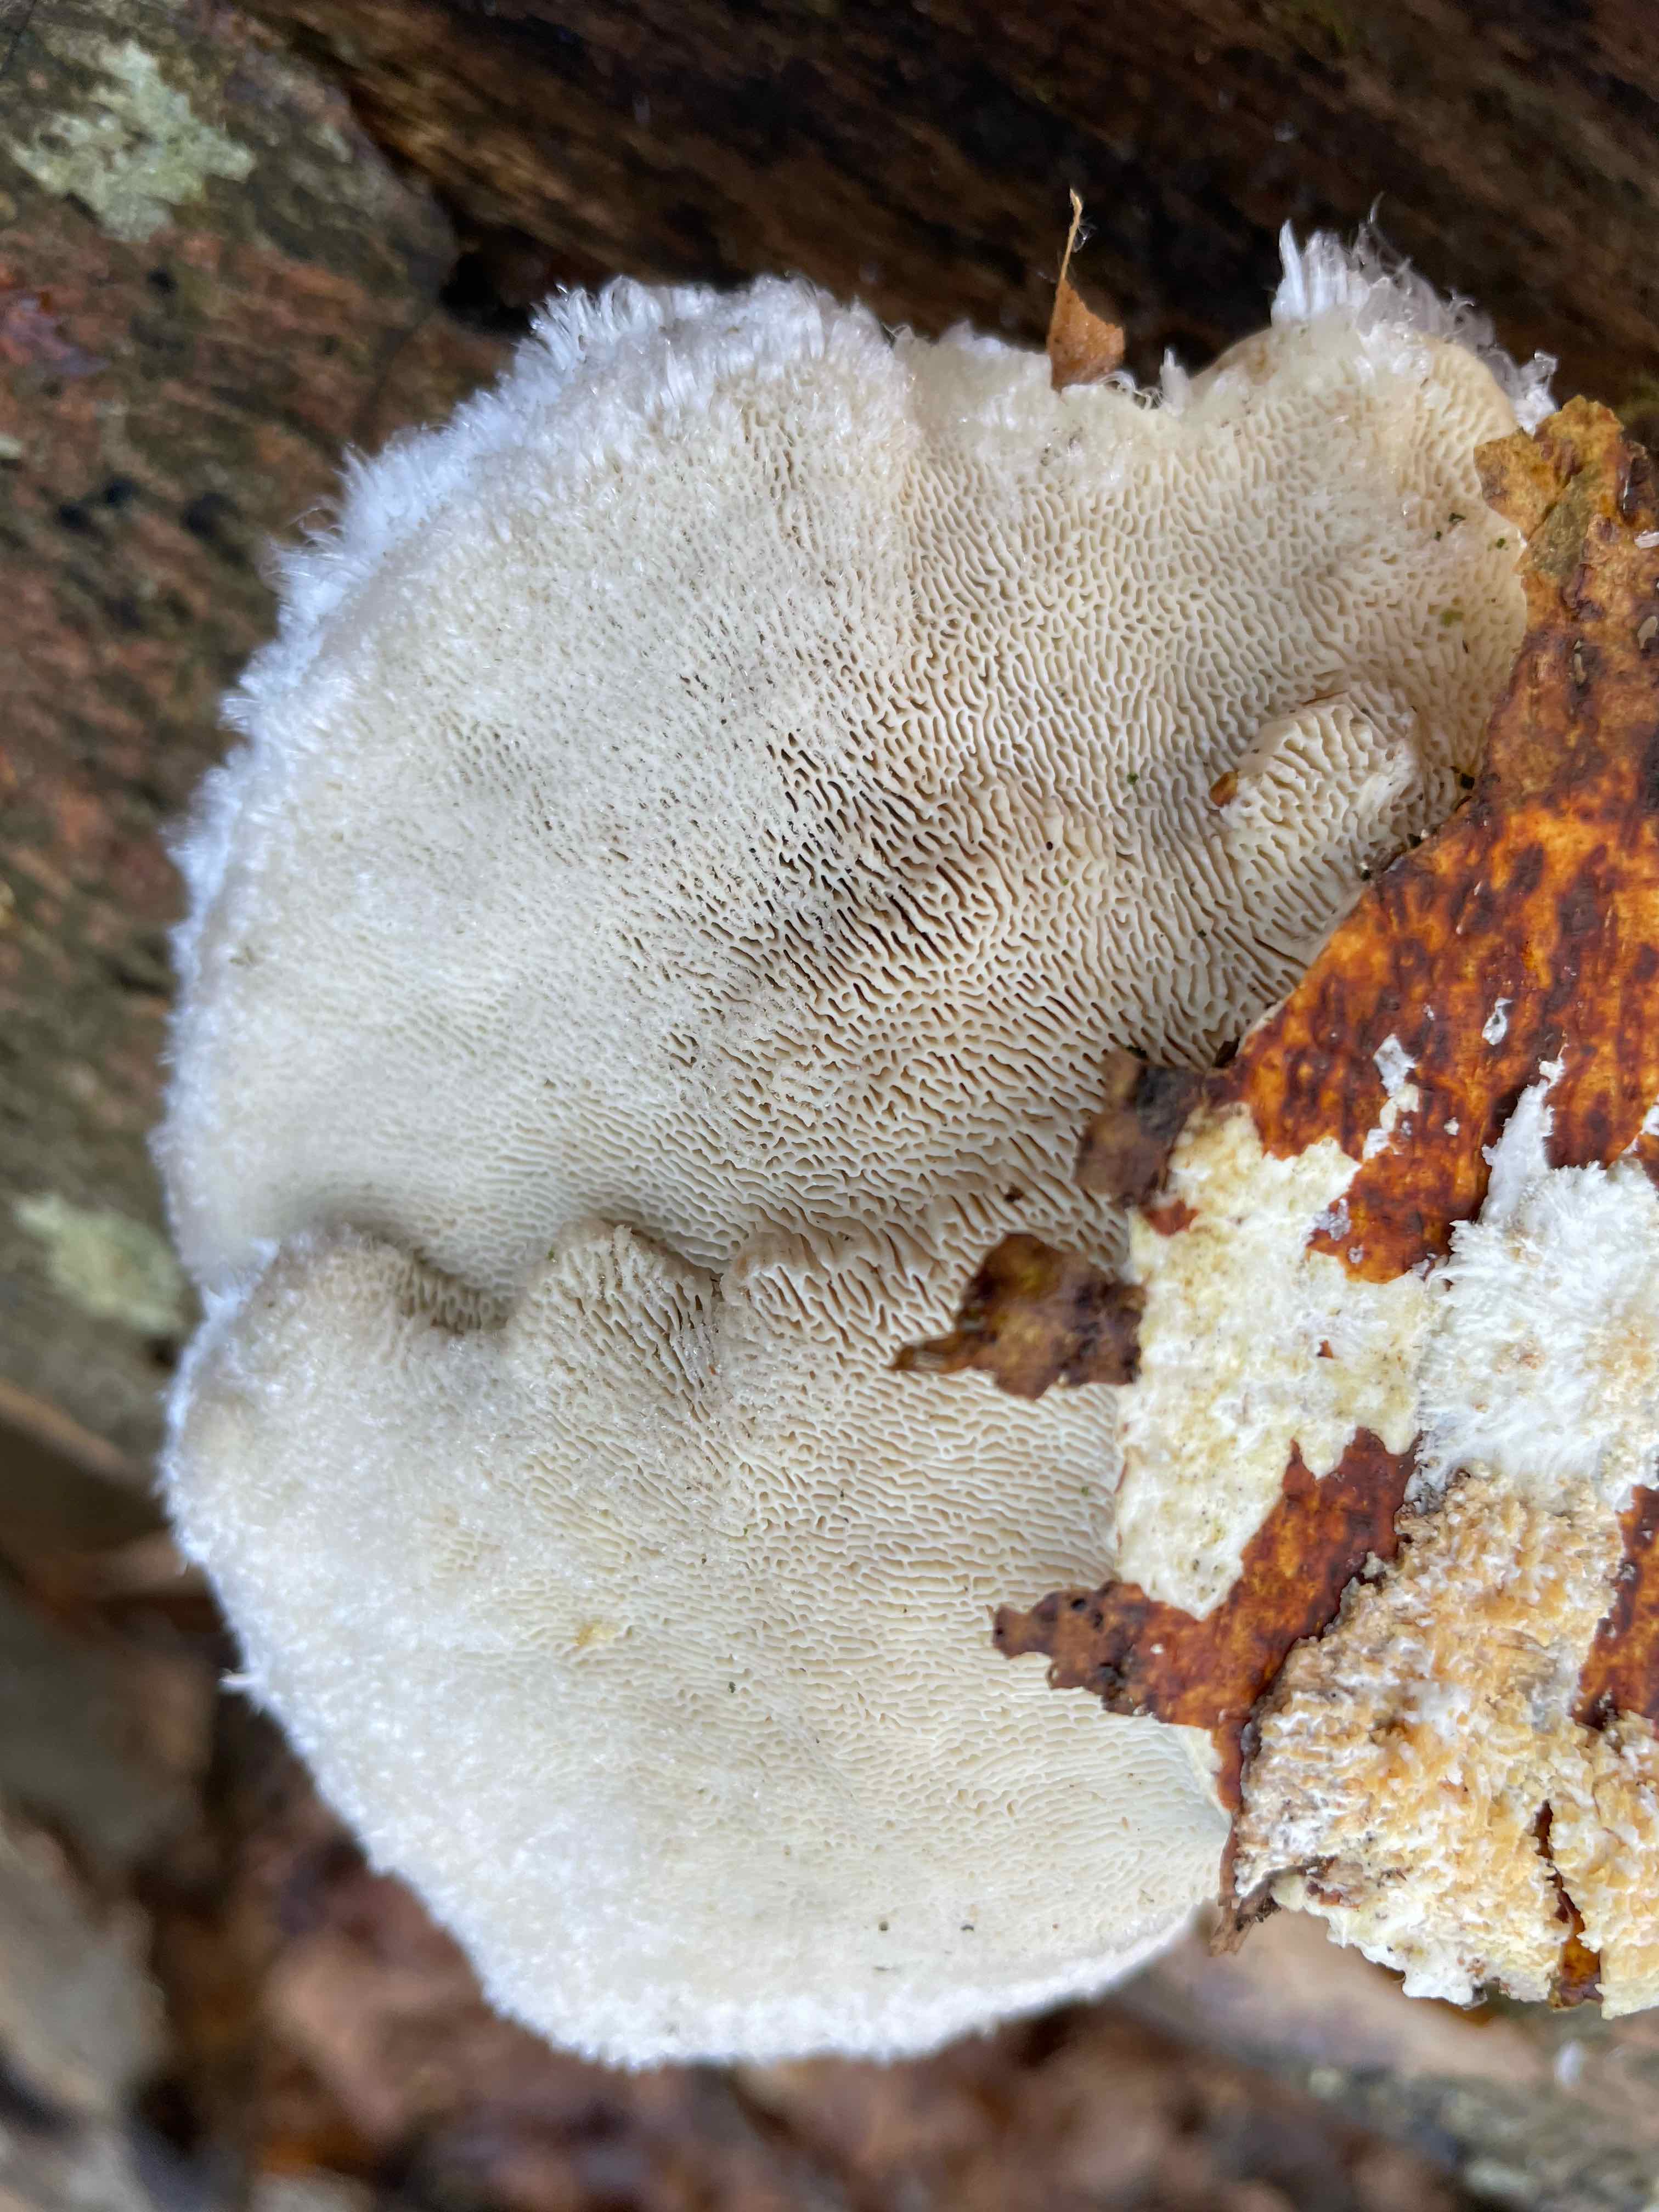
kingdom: Fungi
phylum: Basidiomycota
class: Agaricomycetes
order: Polyporales
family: Polyporaceae
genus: Trametes
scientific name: Trametes hirsuta
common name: håret læderporesvamp
